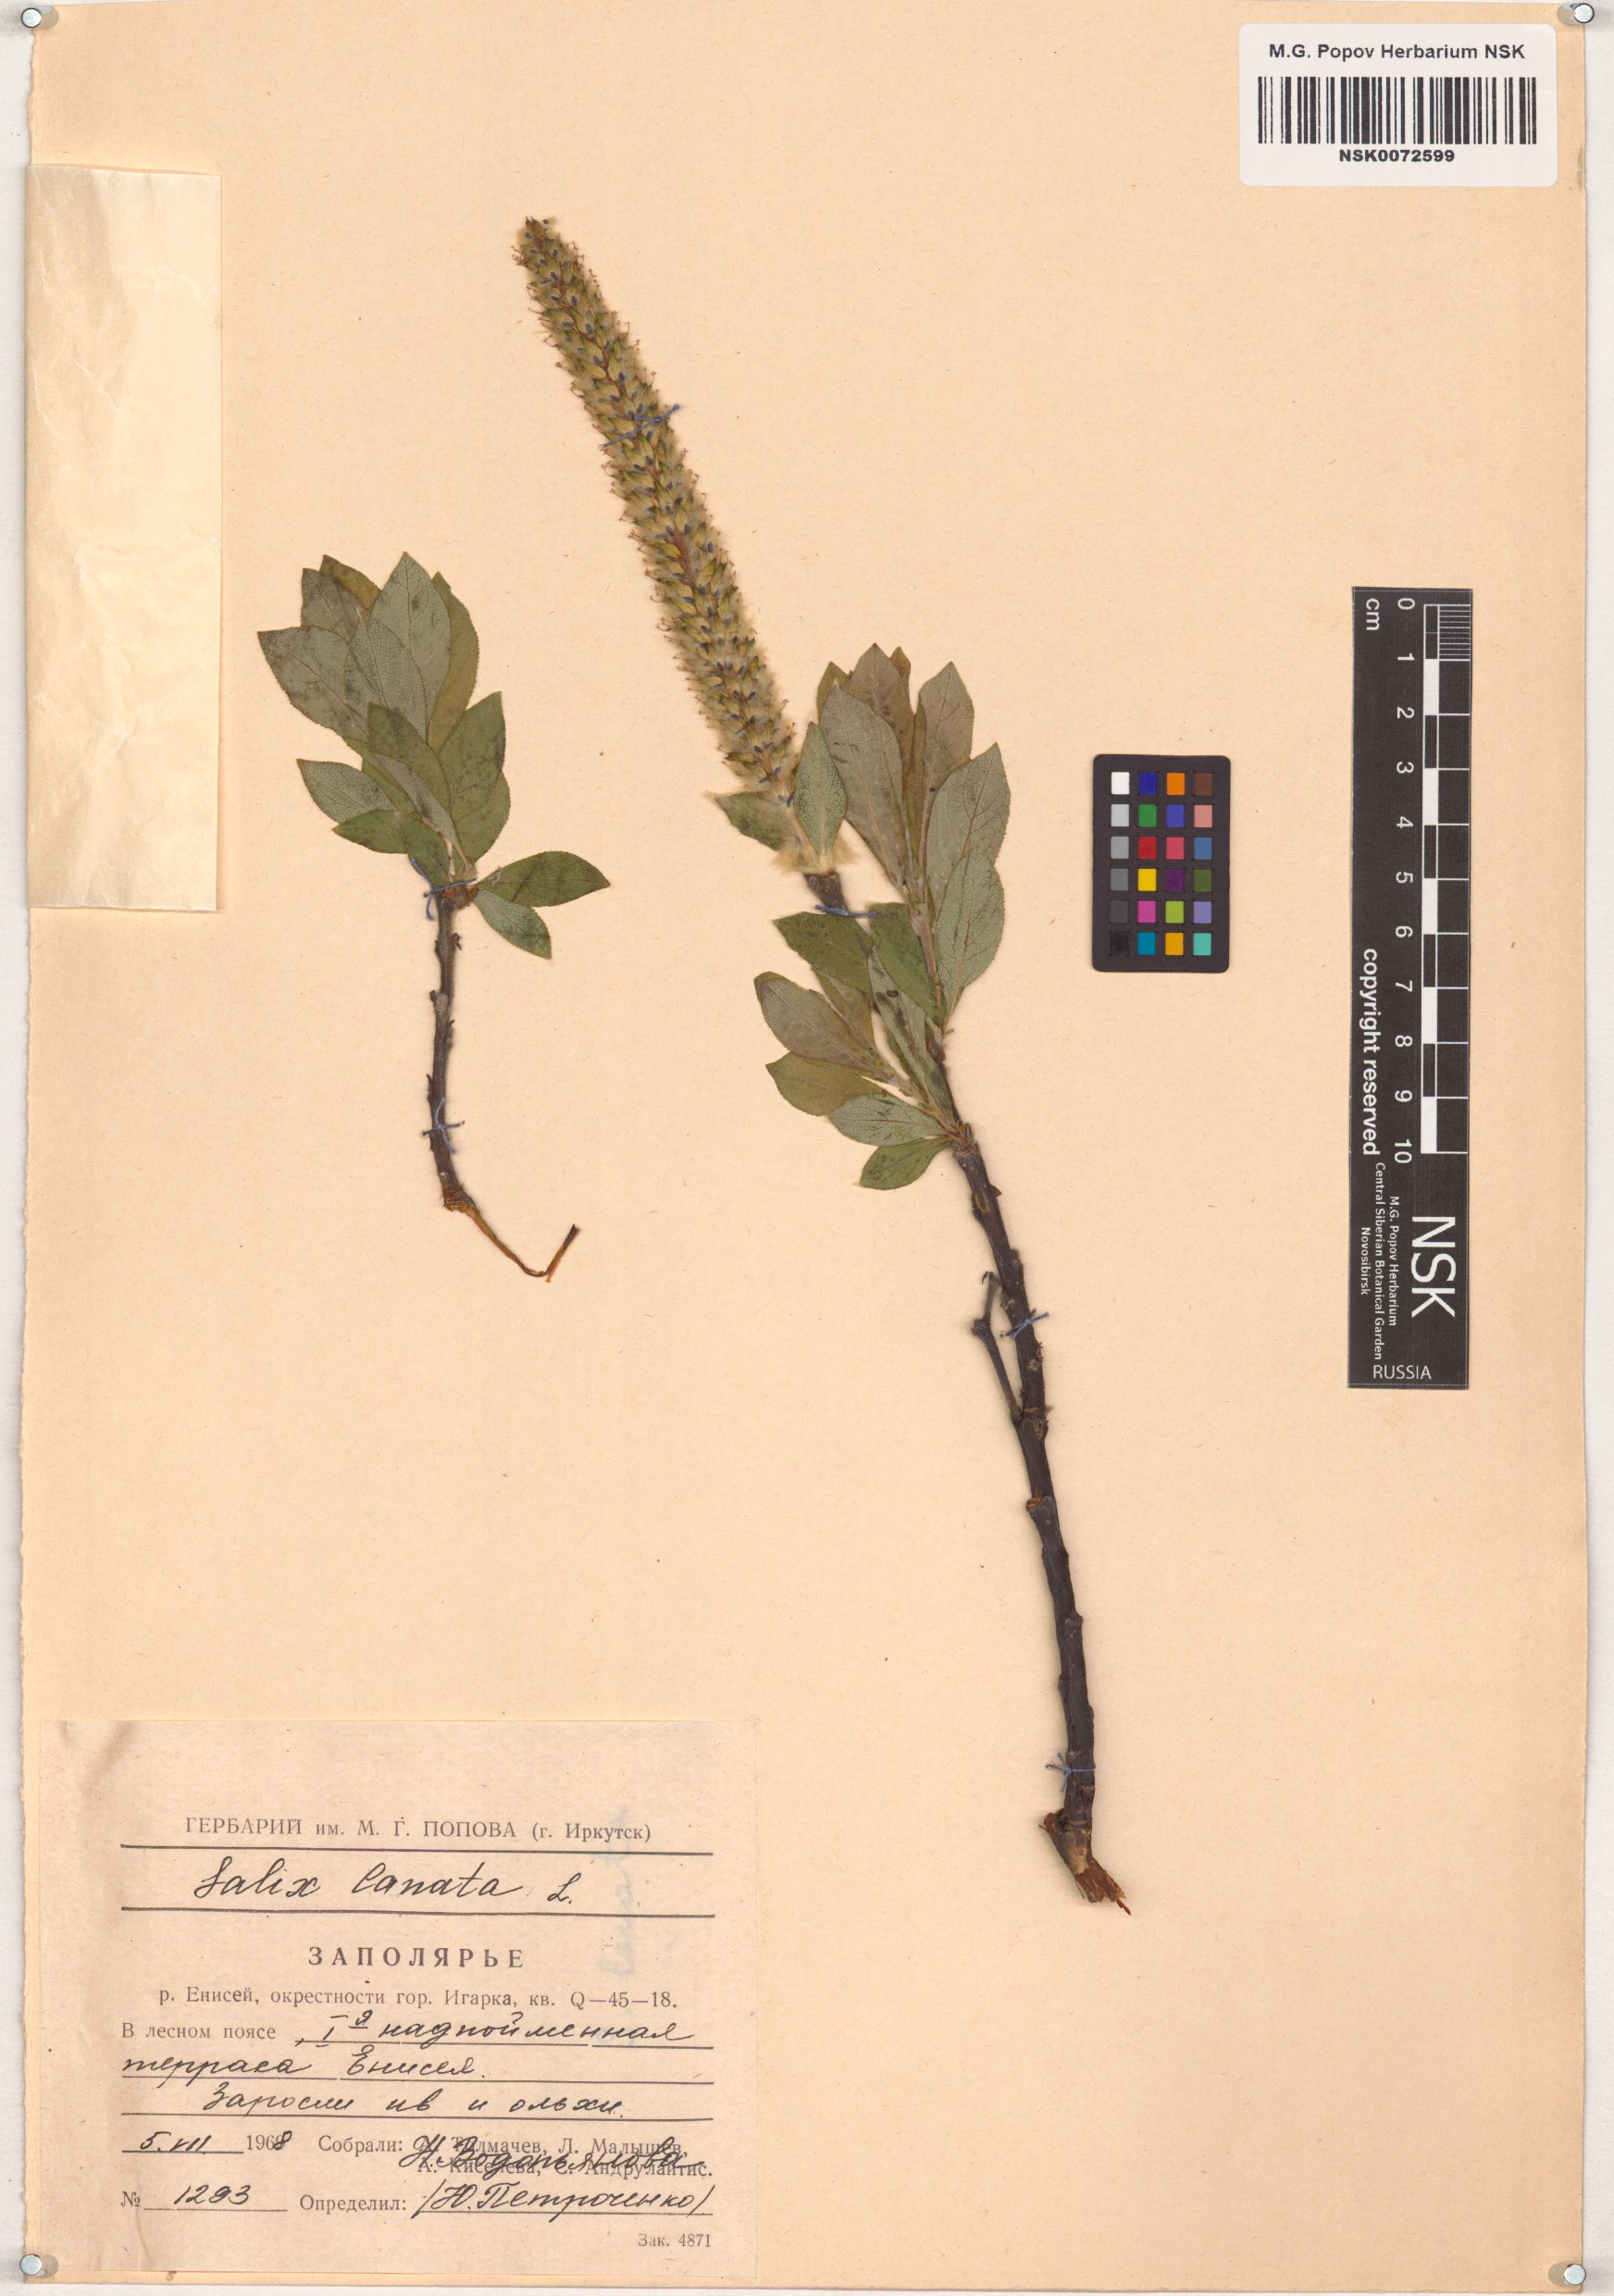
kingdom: Plantae
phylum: Tracheophyta
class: Magnoliopsida
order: Malpighiales
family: Salicaceae
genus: Salix
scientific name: Salix lanata
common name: Woolly willow
